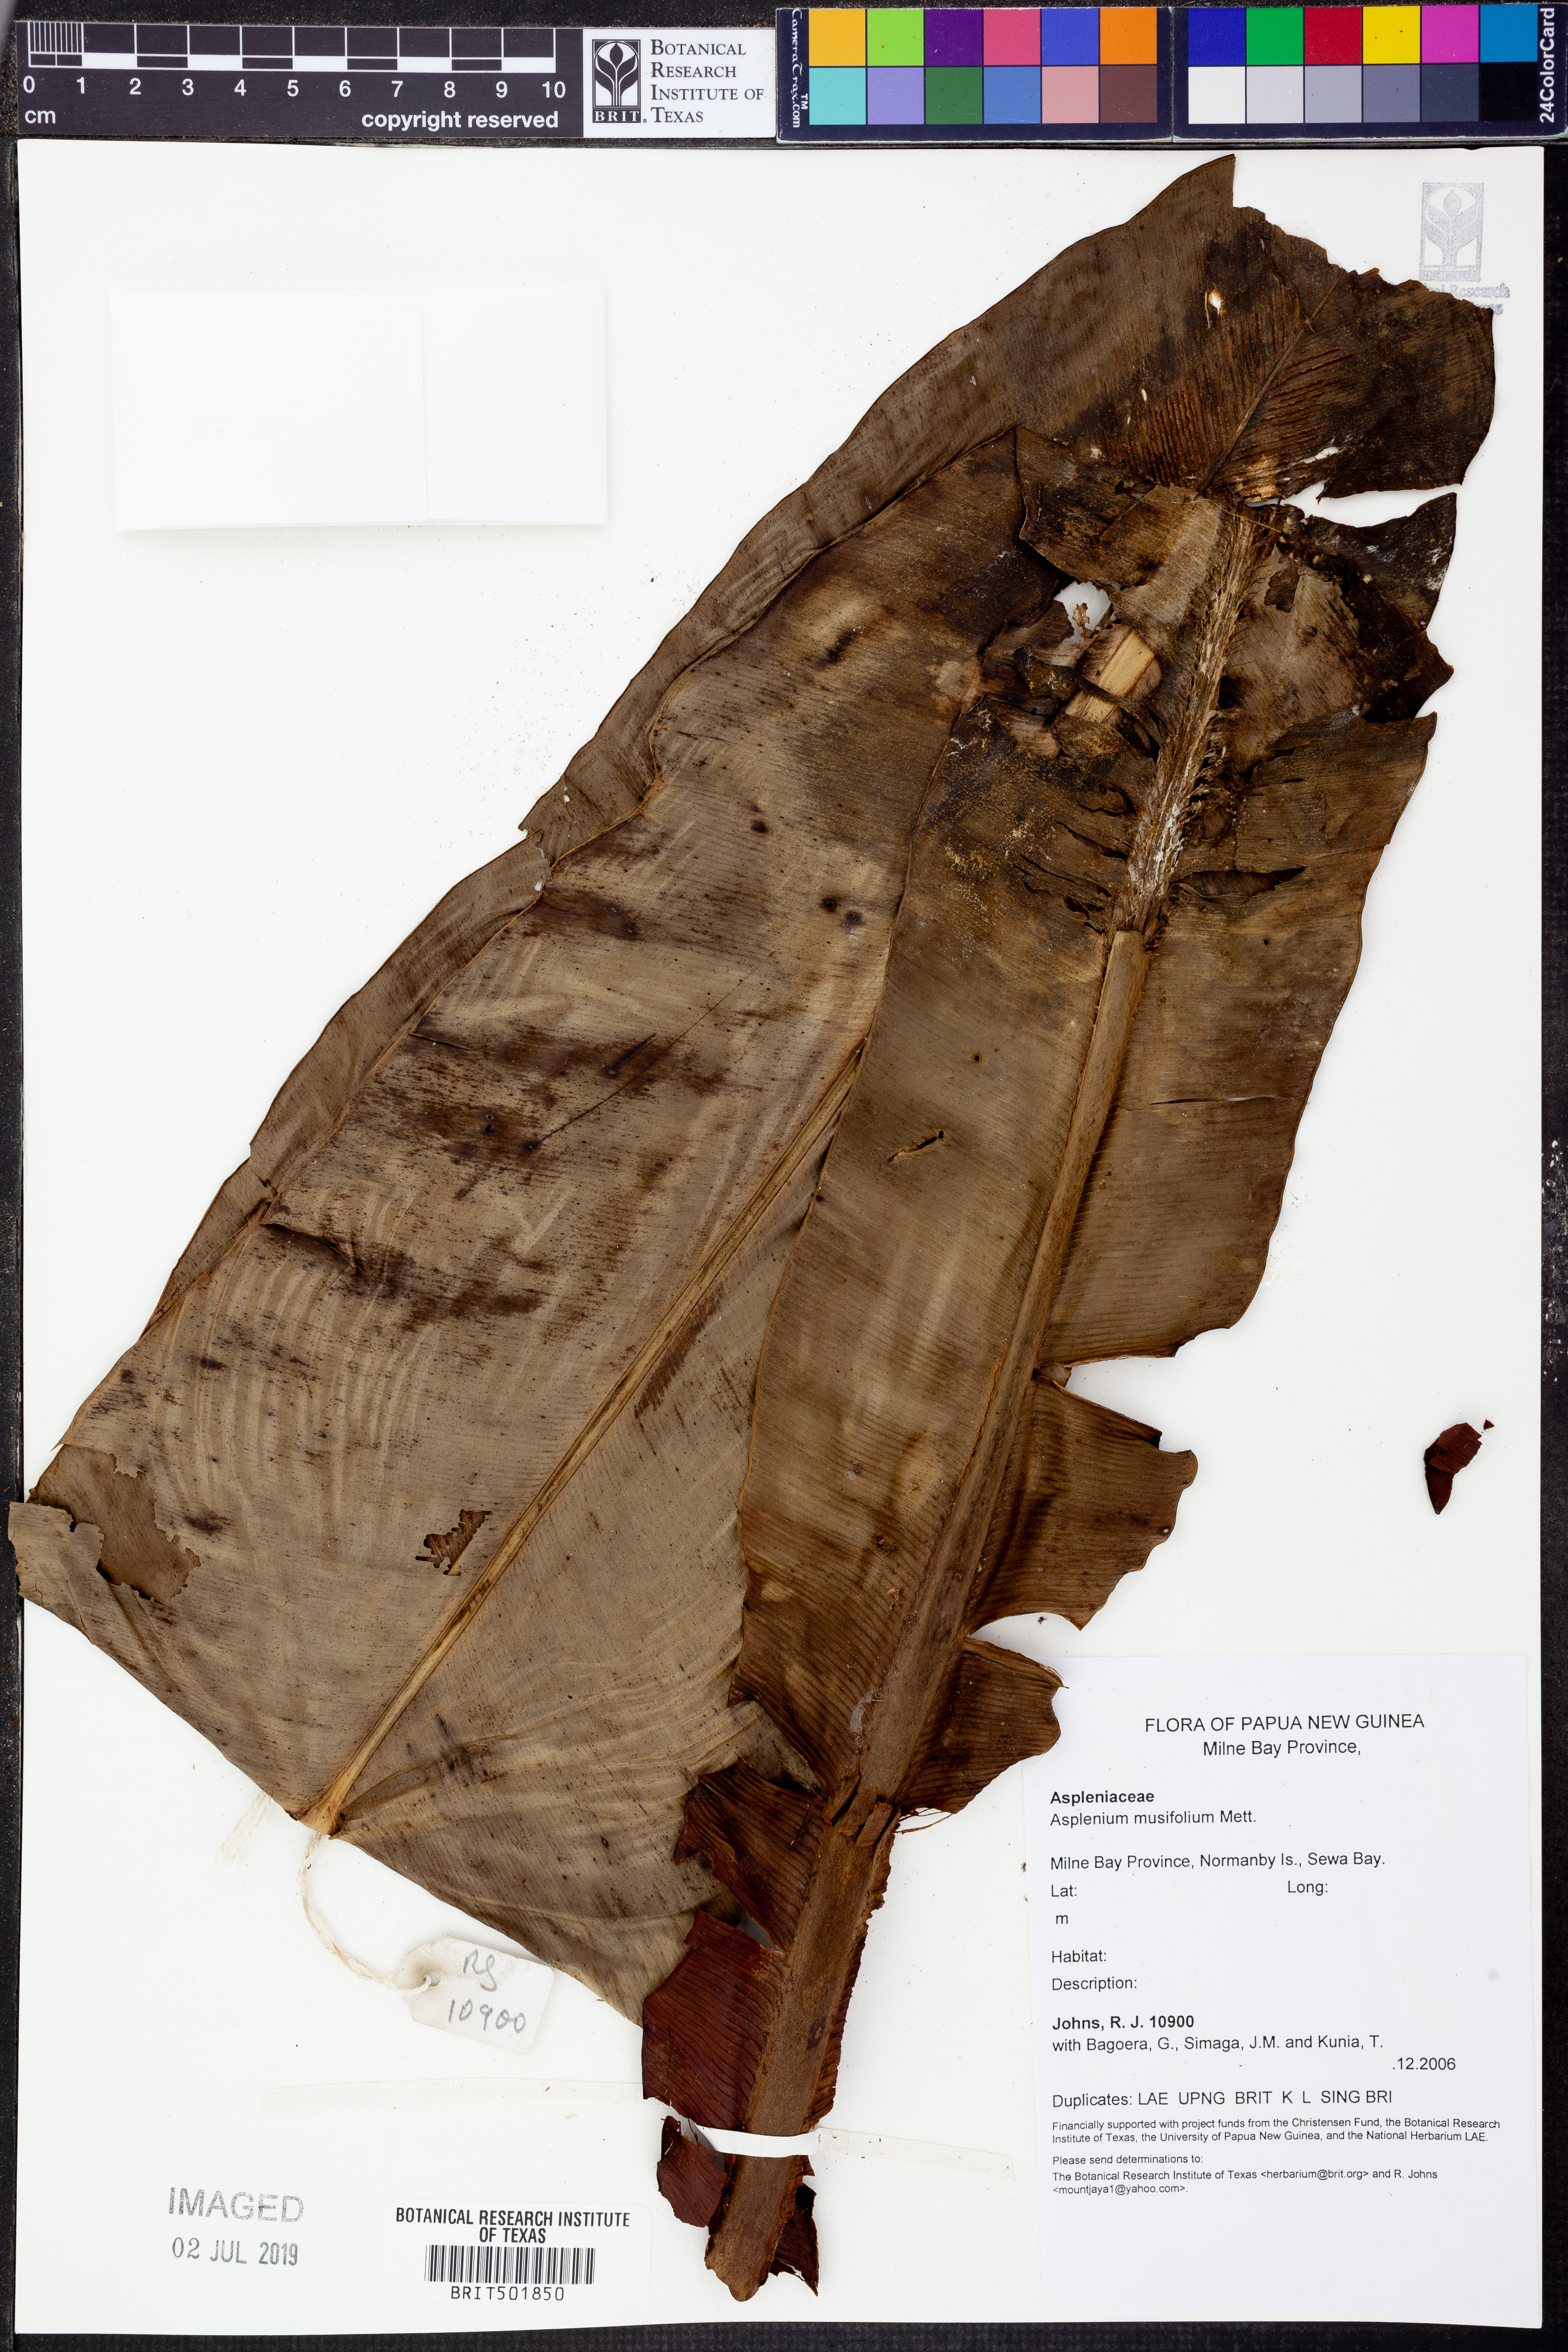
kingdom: Plantae
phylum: Tracheophyta
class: Polypodiopsida
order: Polypodiales
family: Aspleniaceae
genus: Asplenium
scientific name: Asplenium musifolium
